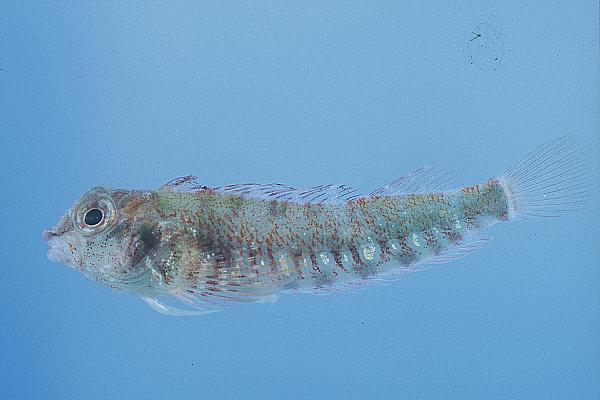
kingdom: Animalia
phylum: Chordata
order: Perciformes
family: Tripterygiidae
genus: Helcogramma
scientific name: Helcogramma rharhabe
